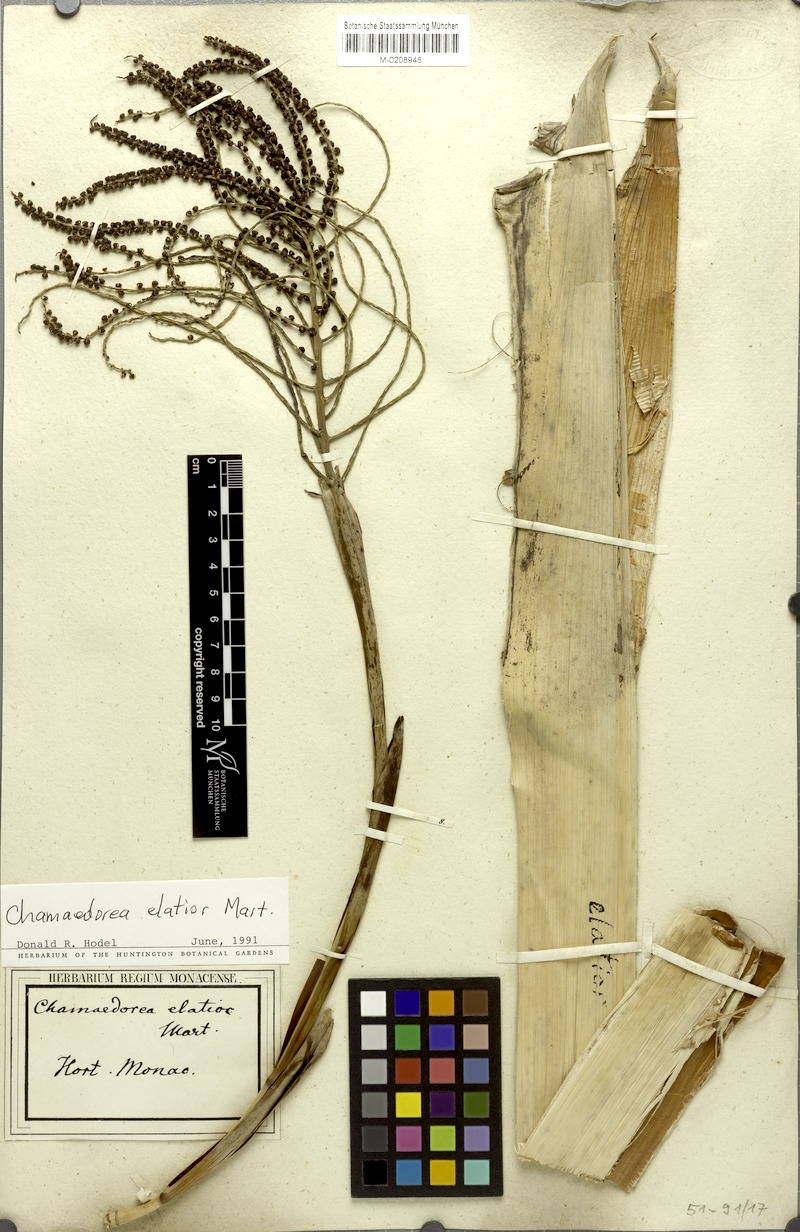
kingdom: Plantae
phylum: Tracheophyta
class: Liliopsida
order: Arecales
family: Arecaceae
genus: Chamaedorea
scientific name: Chamaedorea elatior
